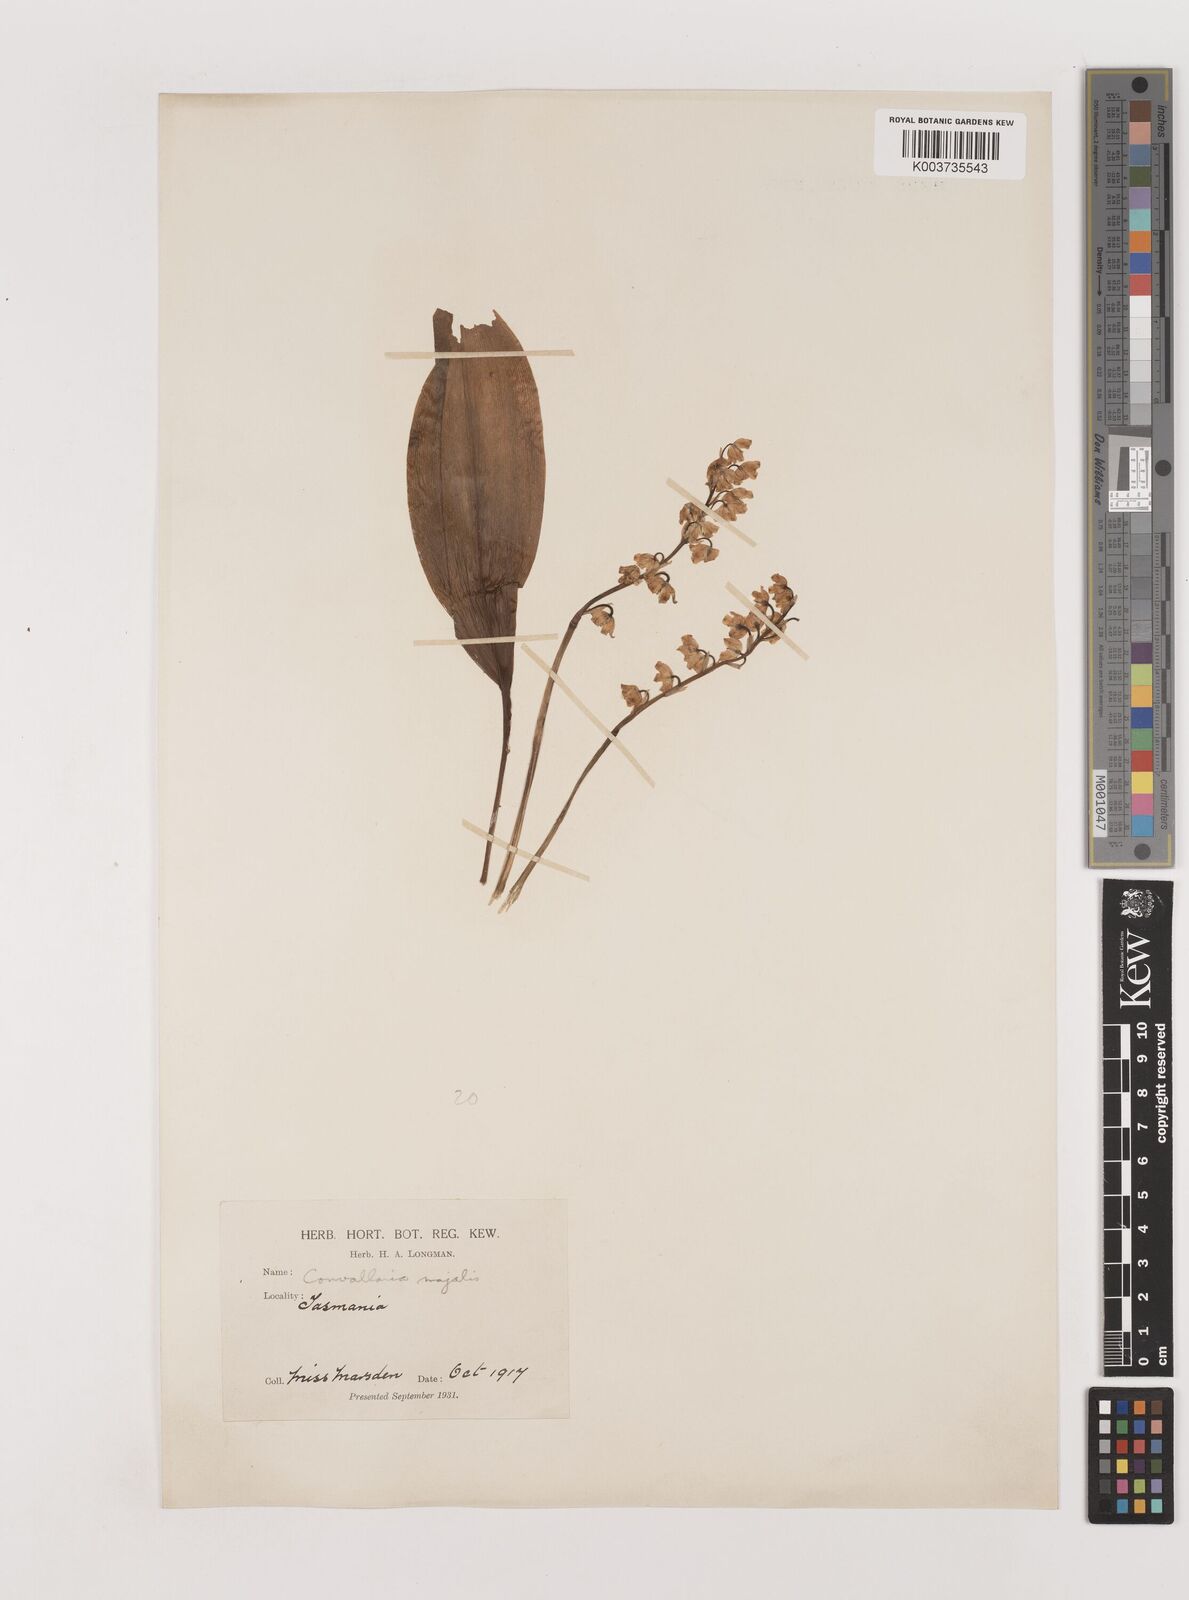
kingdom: Plantae
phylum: Tracheophyta
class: Liliopsida
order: Asparagales
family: Asparagaceae
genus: Convallaria
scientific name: Convallaria majalis
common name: Lily-of-the-valley
